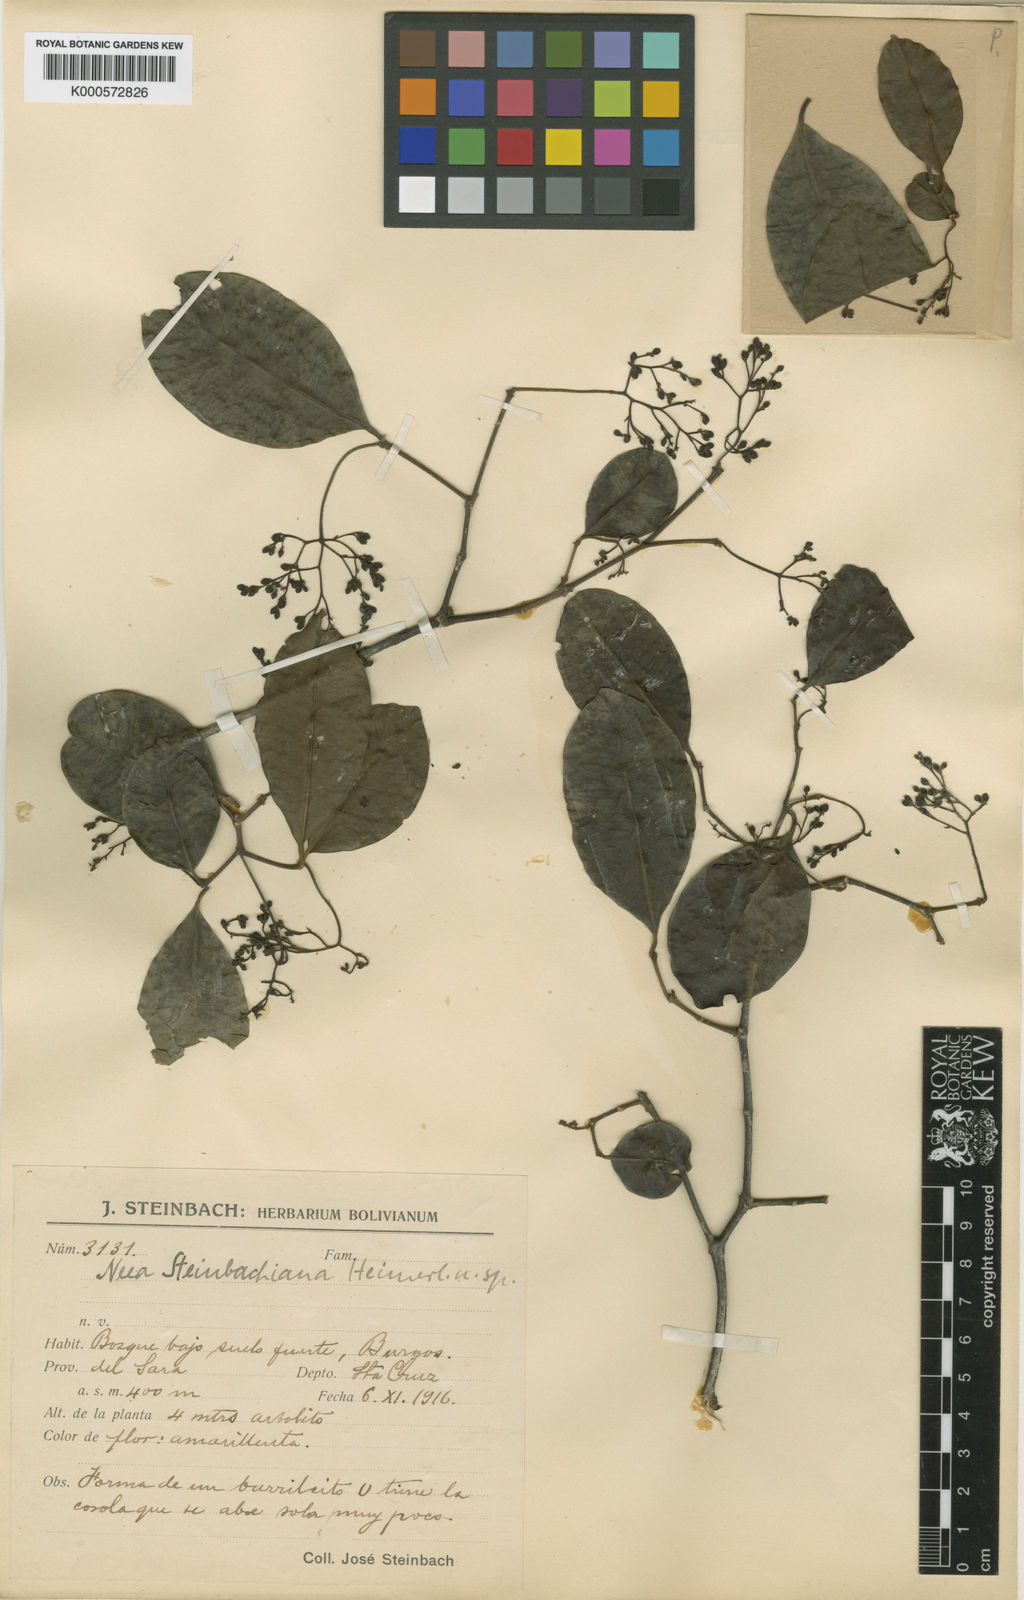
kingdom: Plantae
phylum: Tracheophyta
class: Magnoliopsida
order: Caryophyllales
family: Nyctaginaceae
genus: Neea
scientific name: Neea
